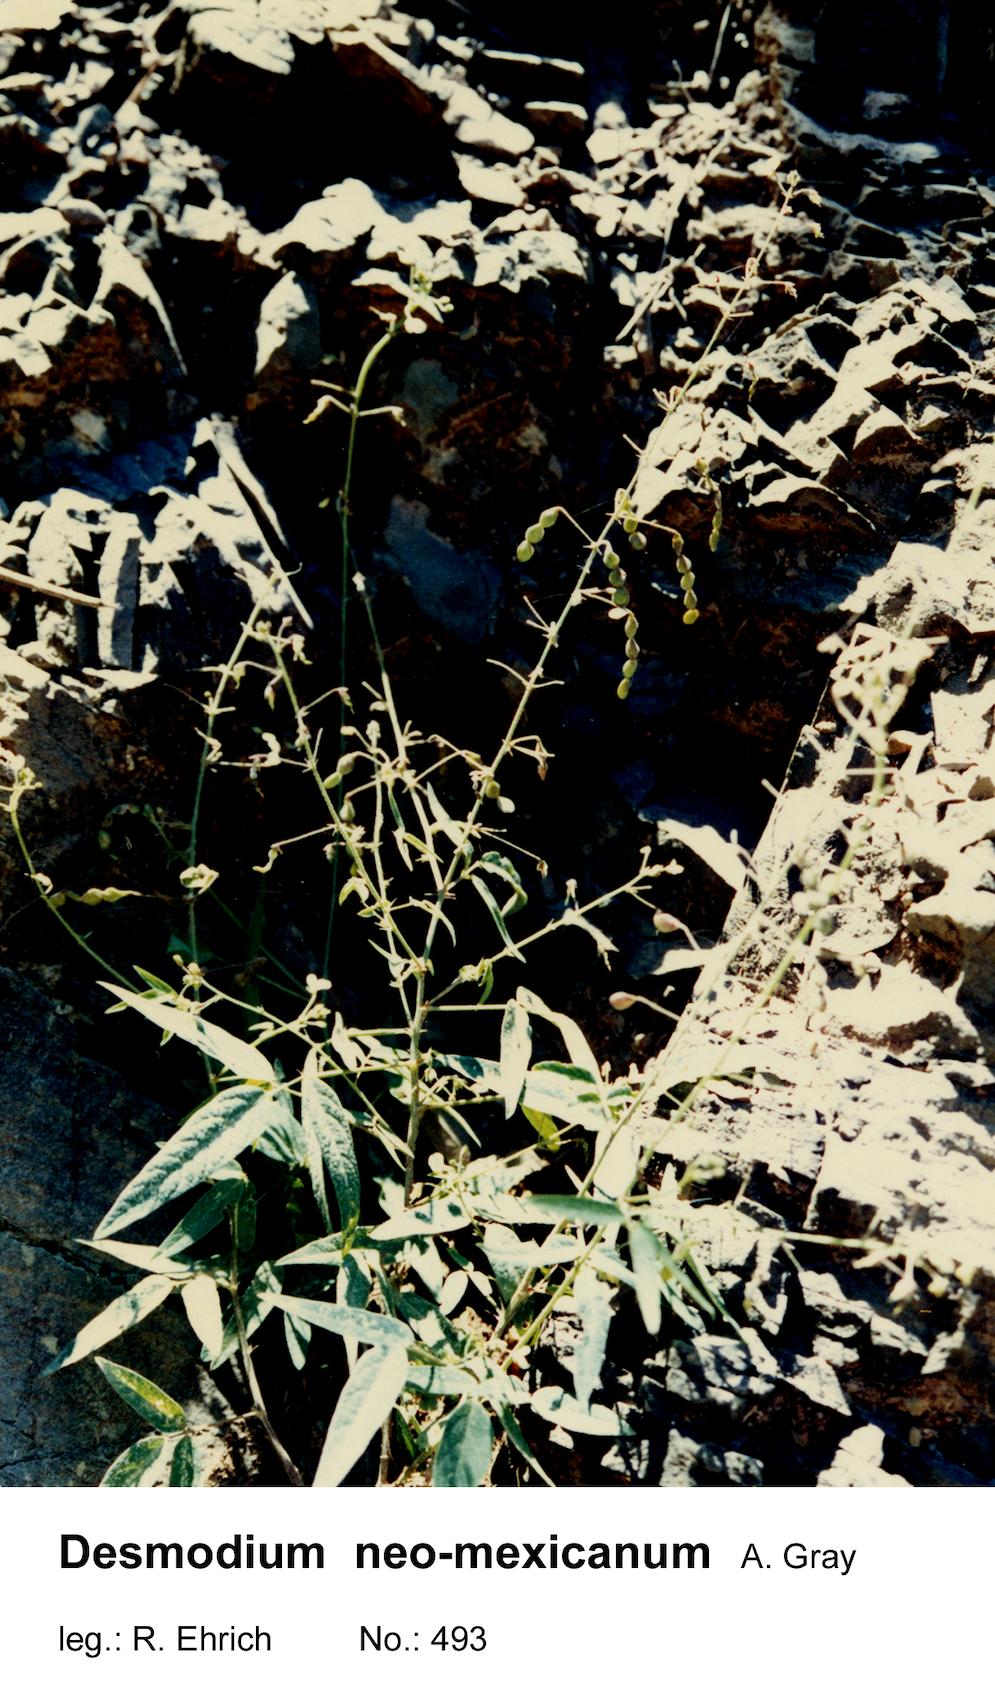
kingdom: Plantae
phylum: Tracheophyta
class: Magnoliopsida
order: Fabales
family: Fabaceae
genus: Desmodium
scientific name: Desmodium procumbens
